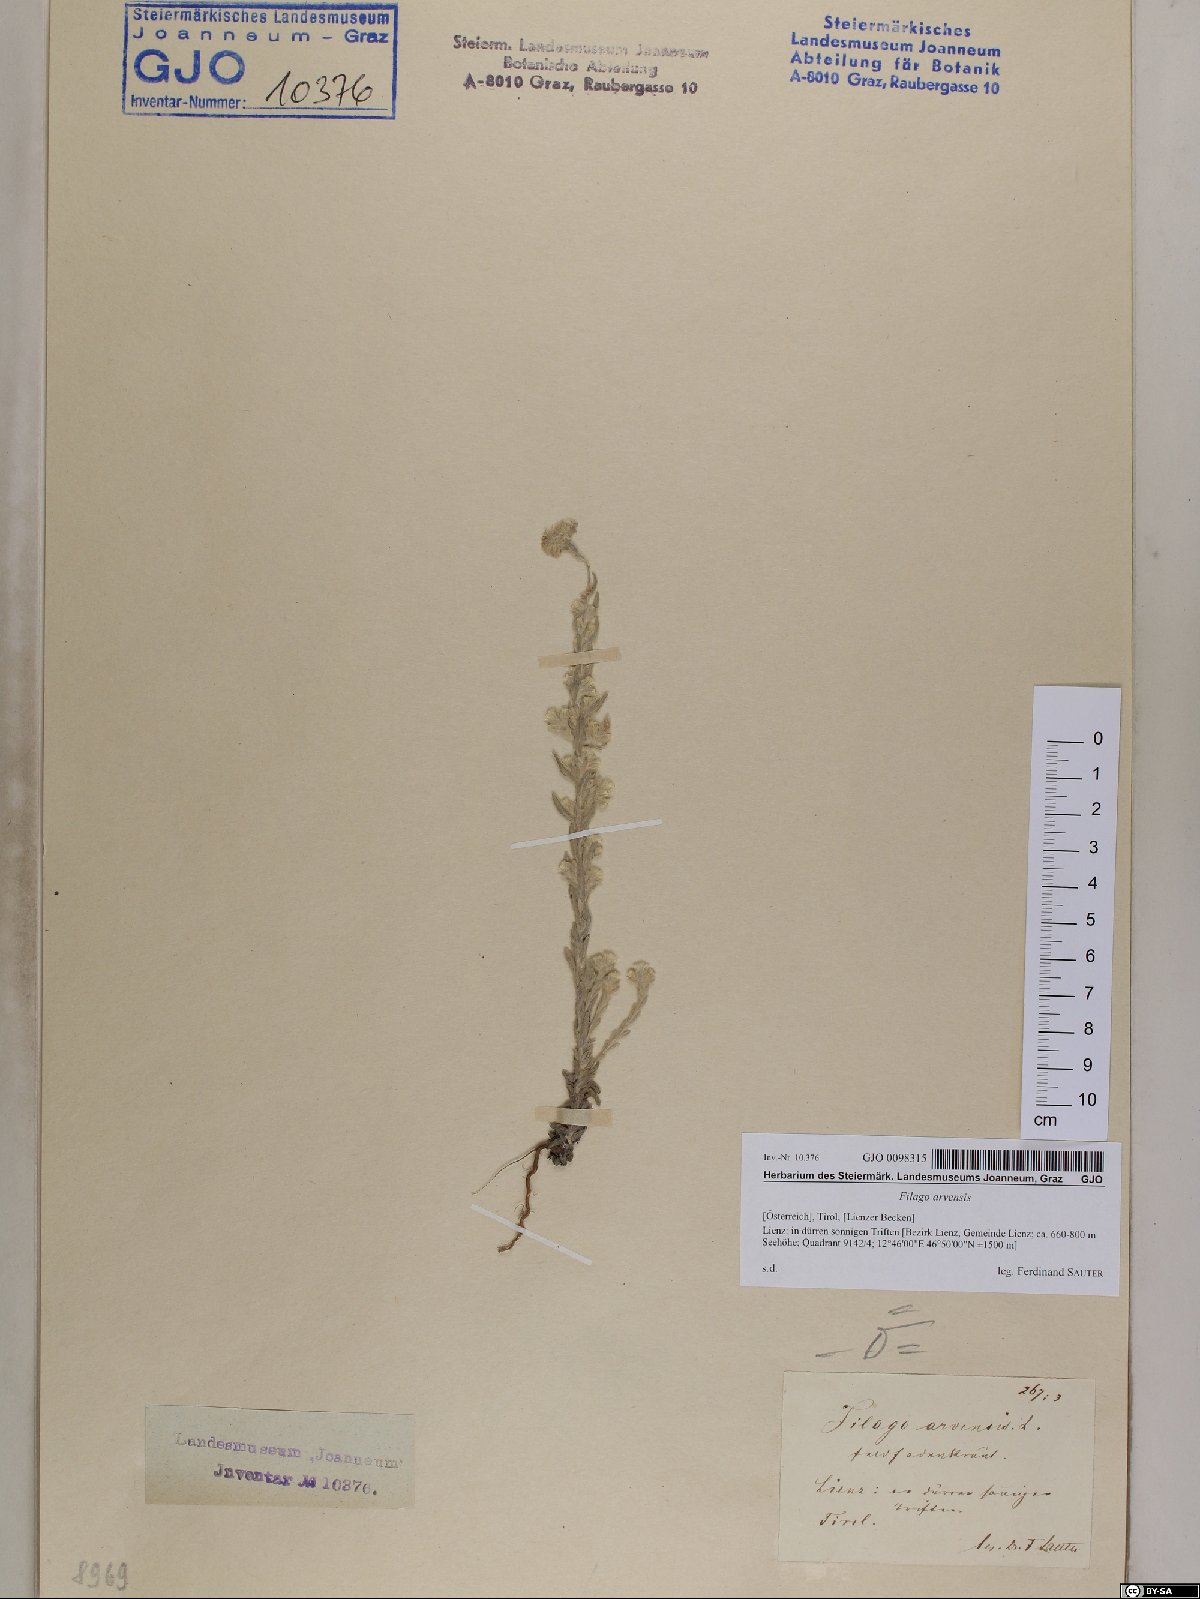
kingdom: Plantae
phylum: Tracheophyta
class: Magnoliopsida
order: Asterales
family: Asteraceae
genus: Filago
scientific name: Filago arvensis
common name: Field cudweed
